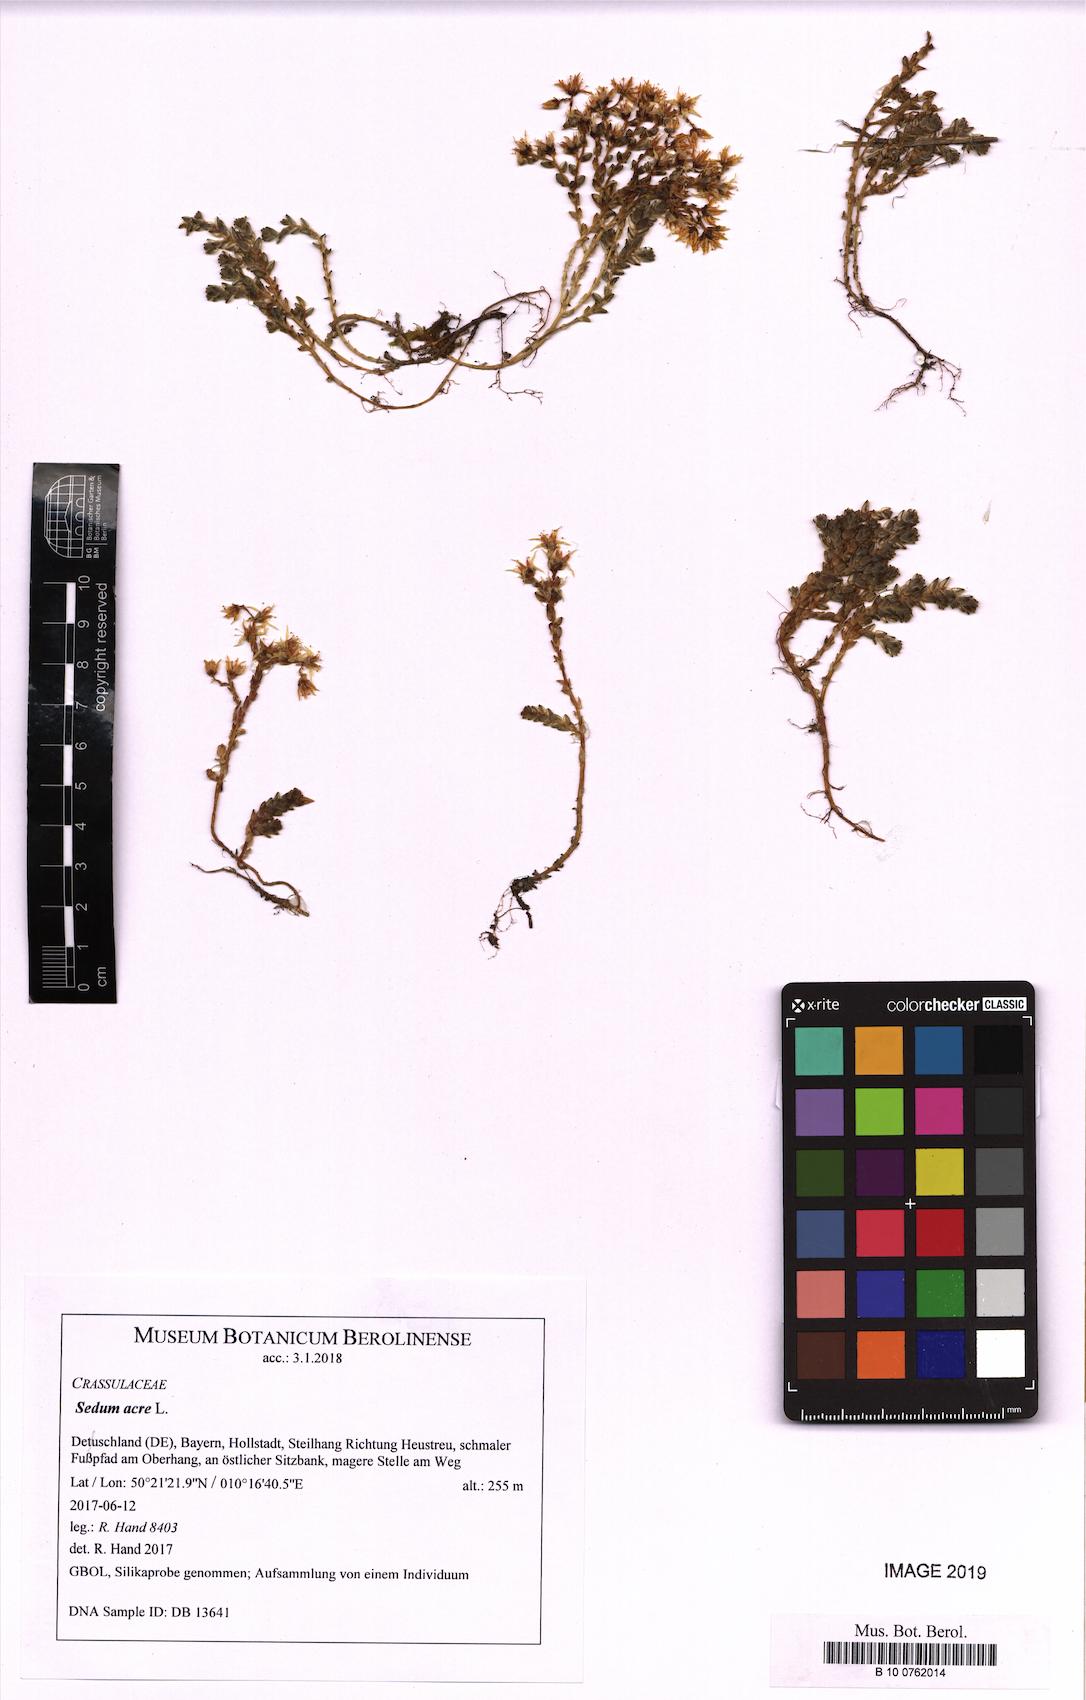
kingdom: Plantae
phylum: Tracheophyta
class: Magnoliopsida
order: Saxifragales
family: Crassulaceae
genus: Sedum
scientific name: Sedum acre
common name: Biting stonecrop
